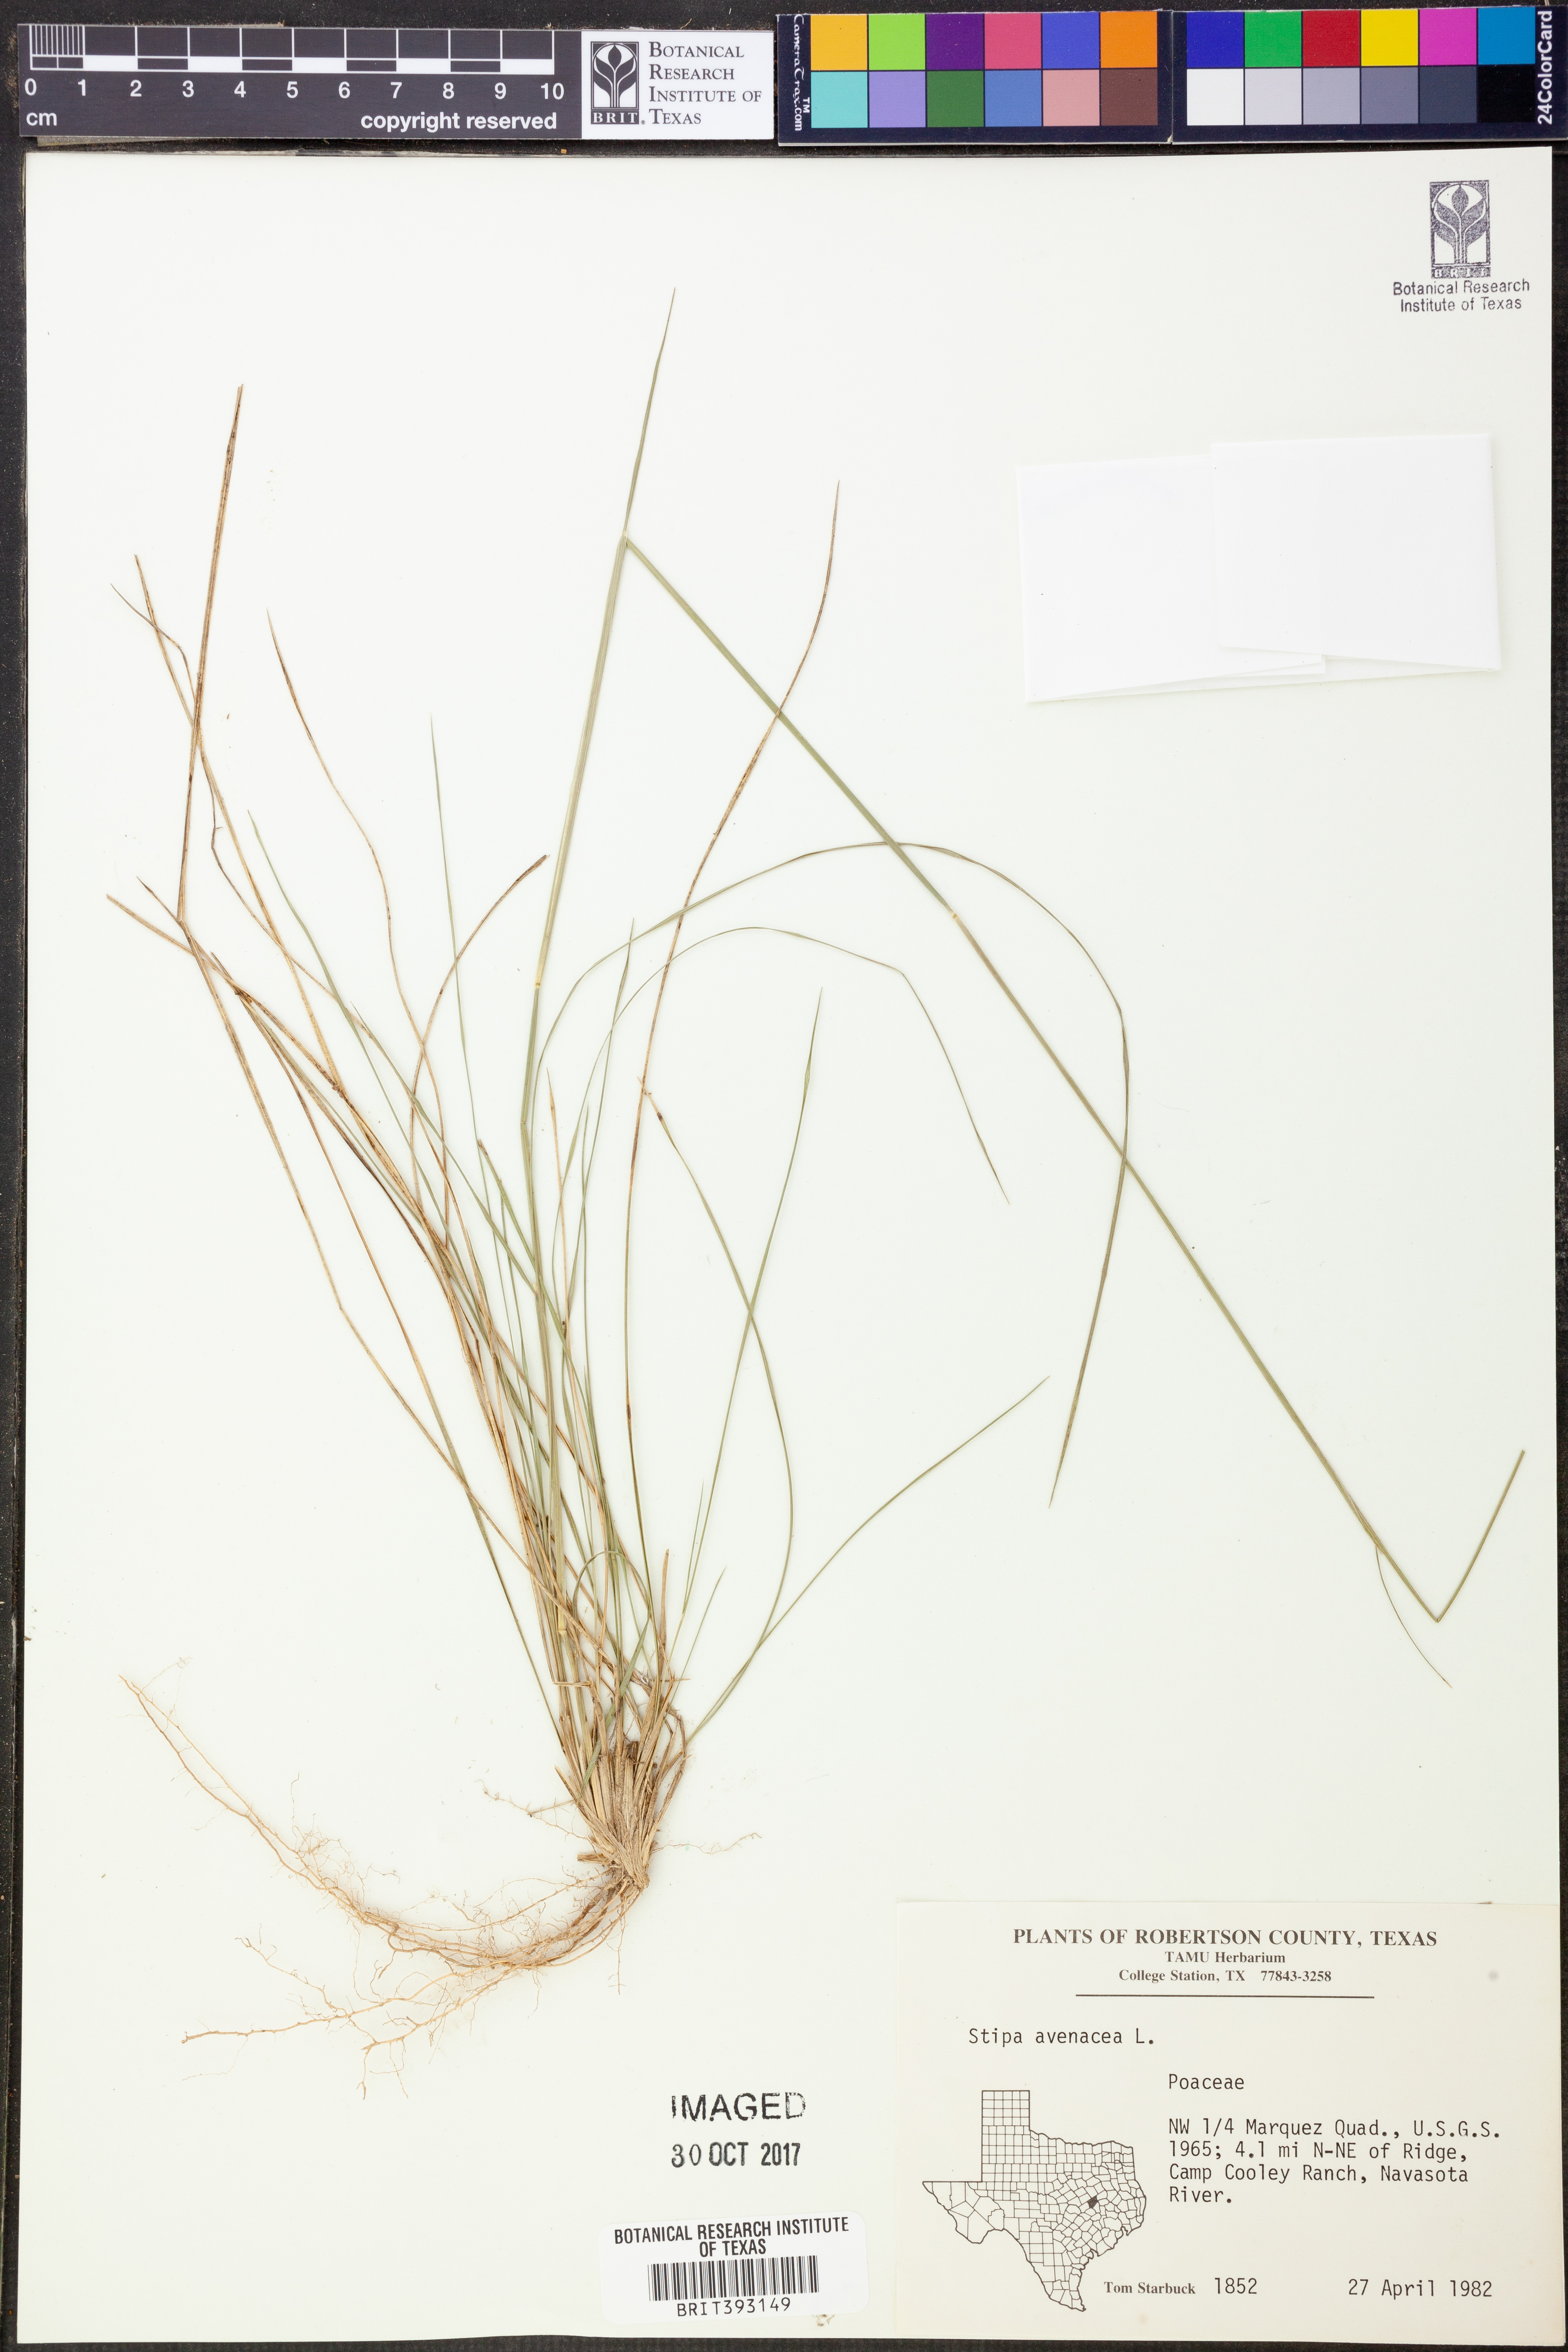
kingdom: Plantae
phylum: Tracheophyta
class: Liliopsida
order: Poales
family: Poaceae
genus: Piptochaetium
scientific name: Piptochaetium avenaceum
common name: Black bunchgrass
